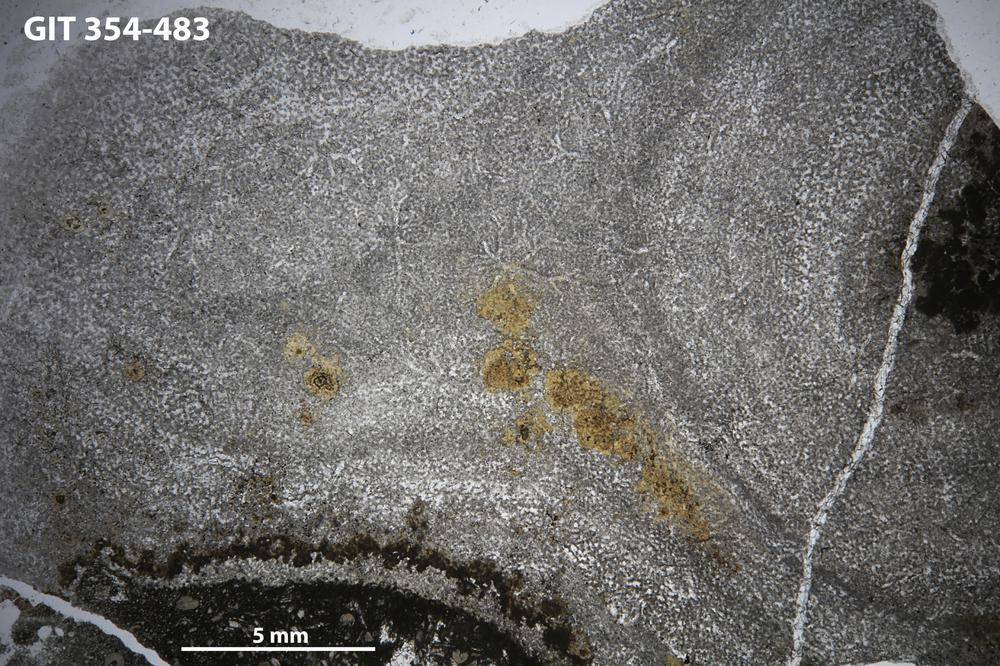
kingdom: Animalia
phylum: Porifera
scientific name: Porifera
